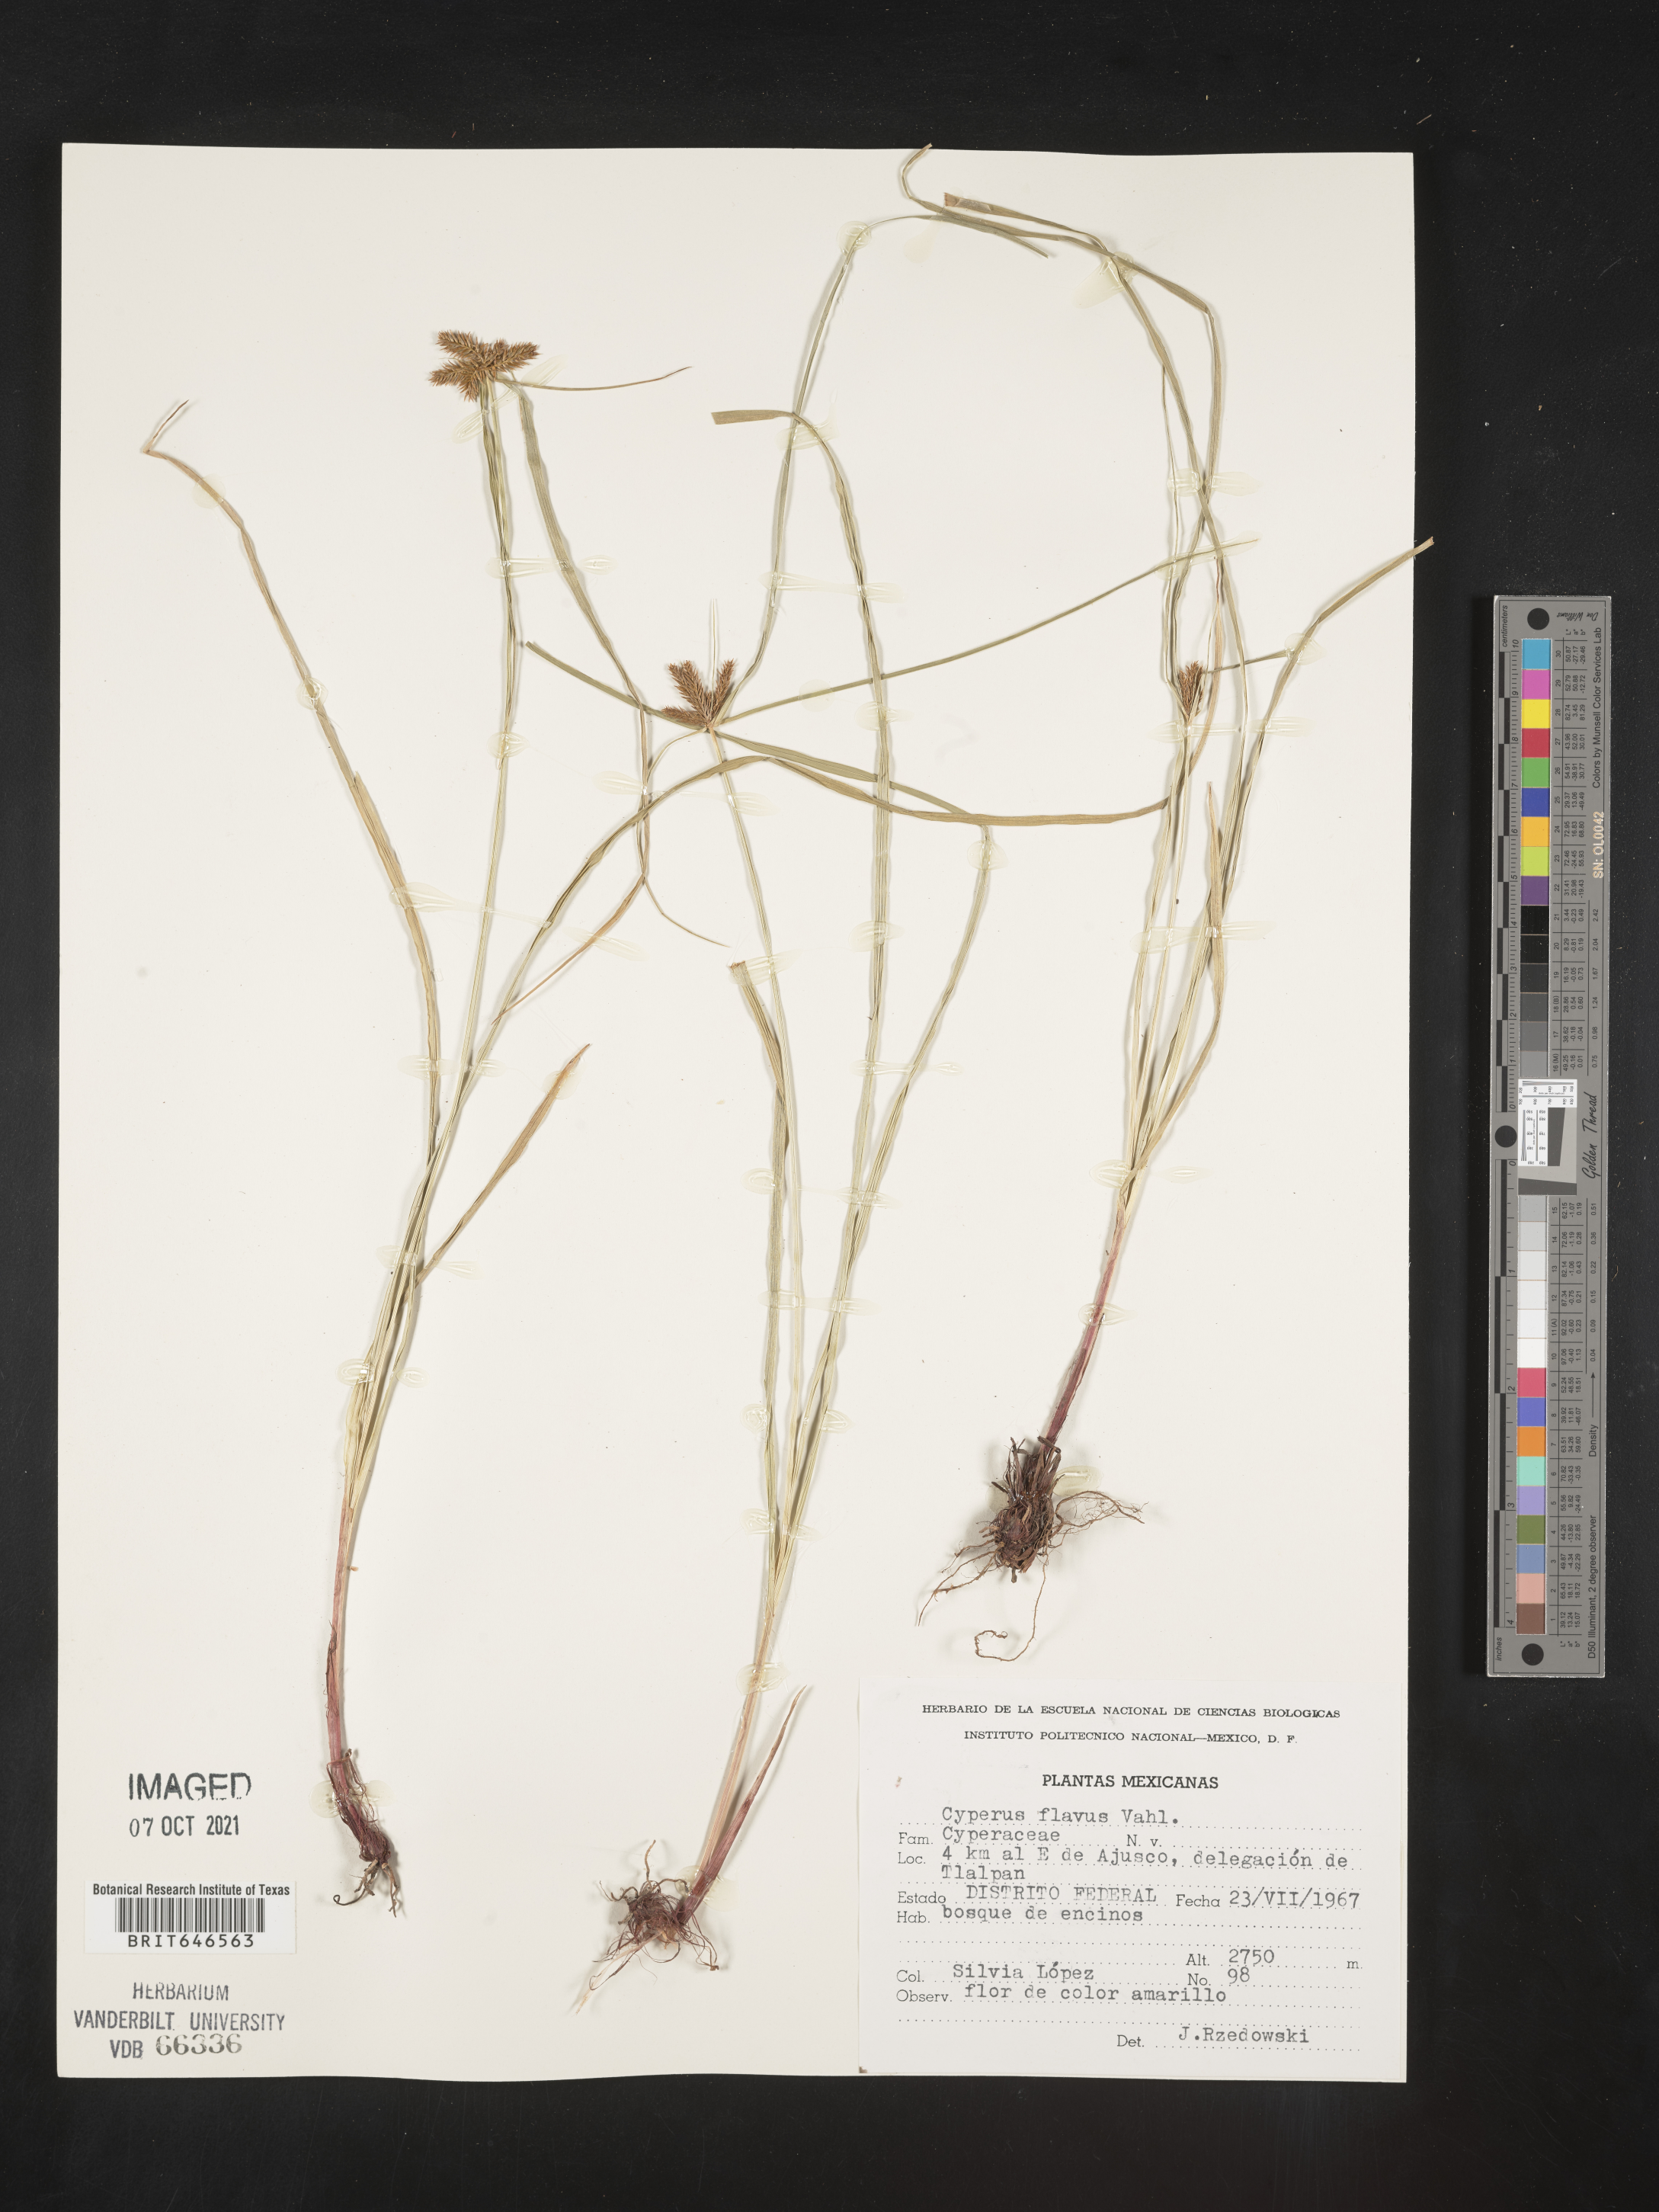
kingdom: Plantae
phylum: Tracheophyta
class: Liliopsida
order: Poales
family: Cyperaceae
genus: Cyperus
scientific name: Cyperus
